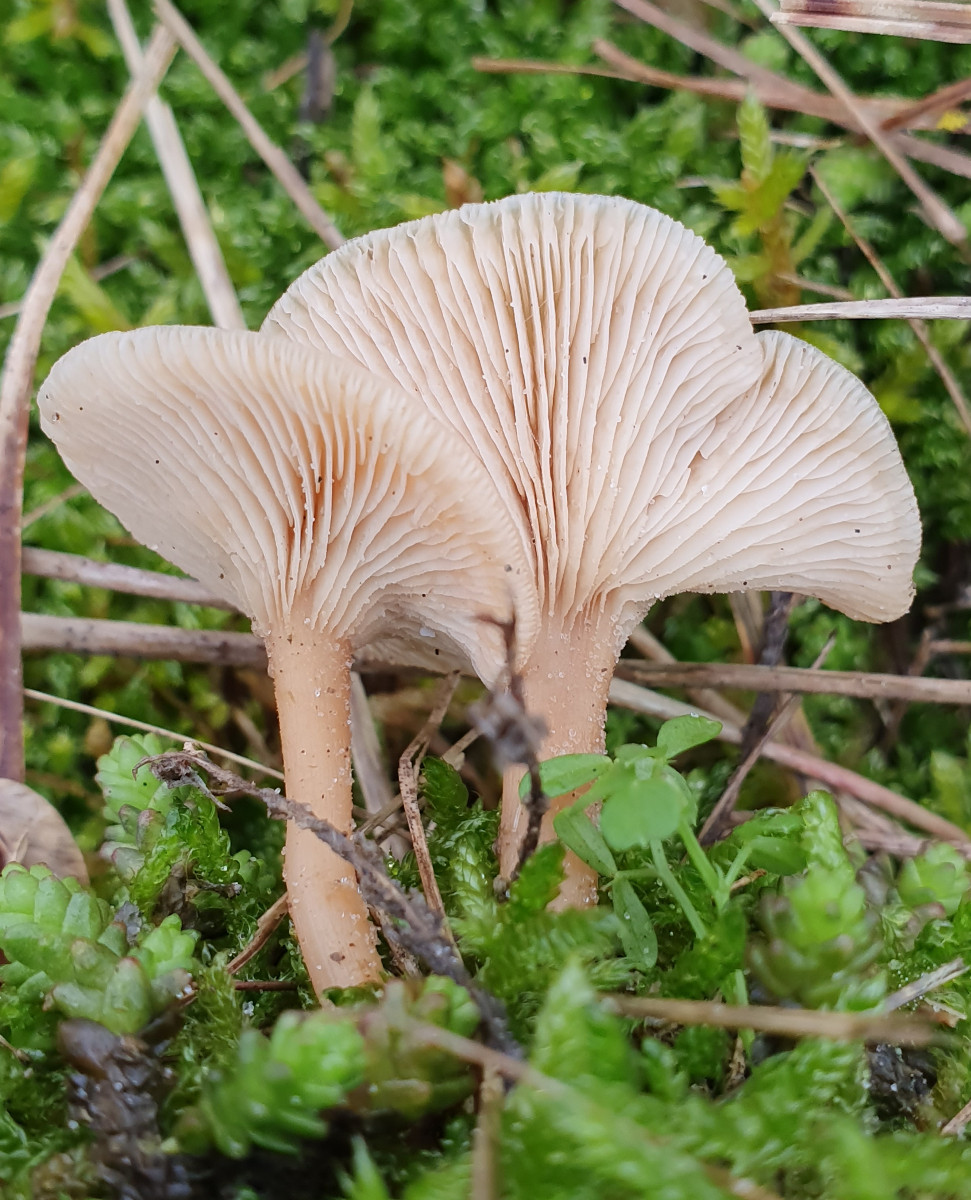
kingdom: Fungi
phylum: Basidiomycota
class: Agaricomycetes
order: Agaricales
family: Tricholomataceae
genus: Clitocybe
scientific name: Clitocybe fragrans
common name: vellugtende tragthat
